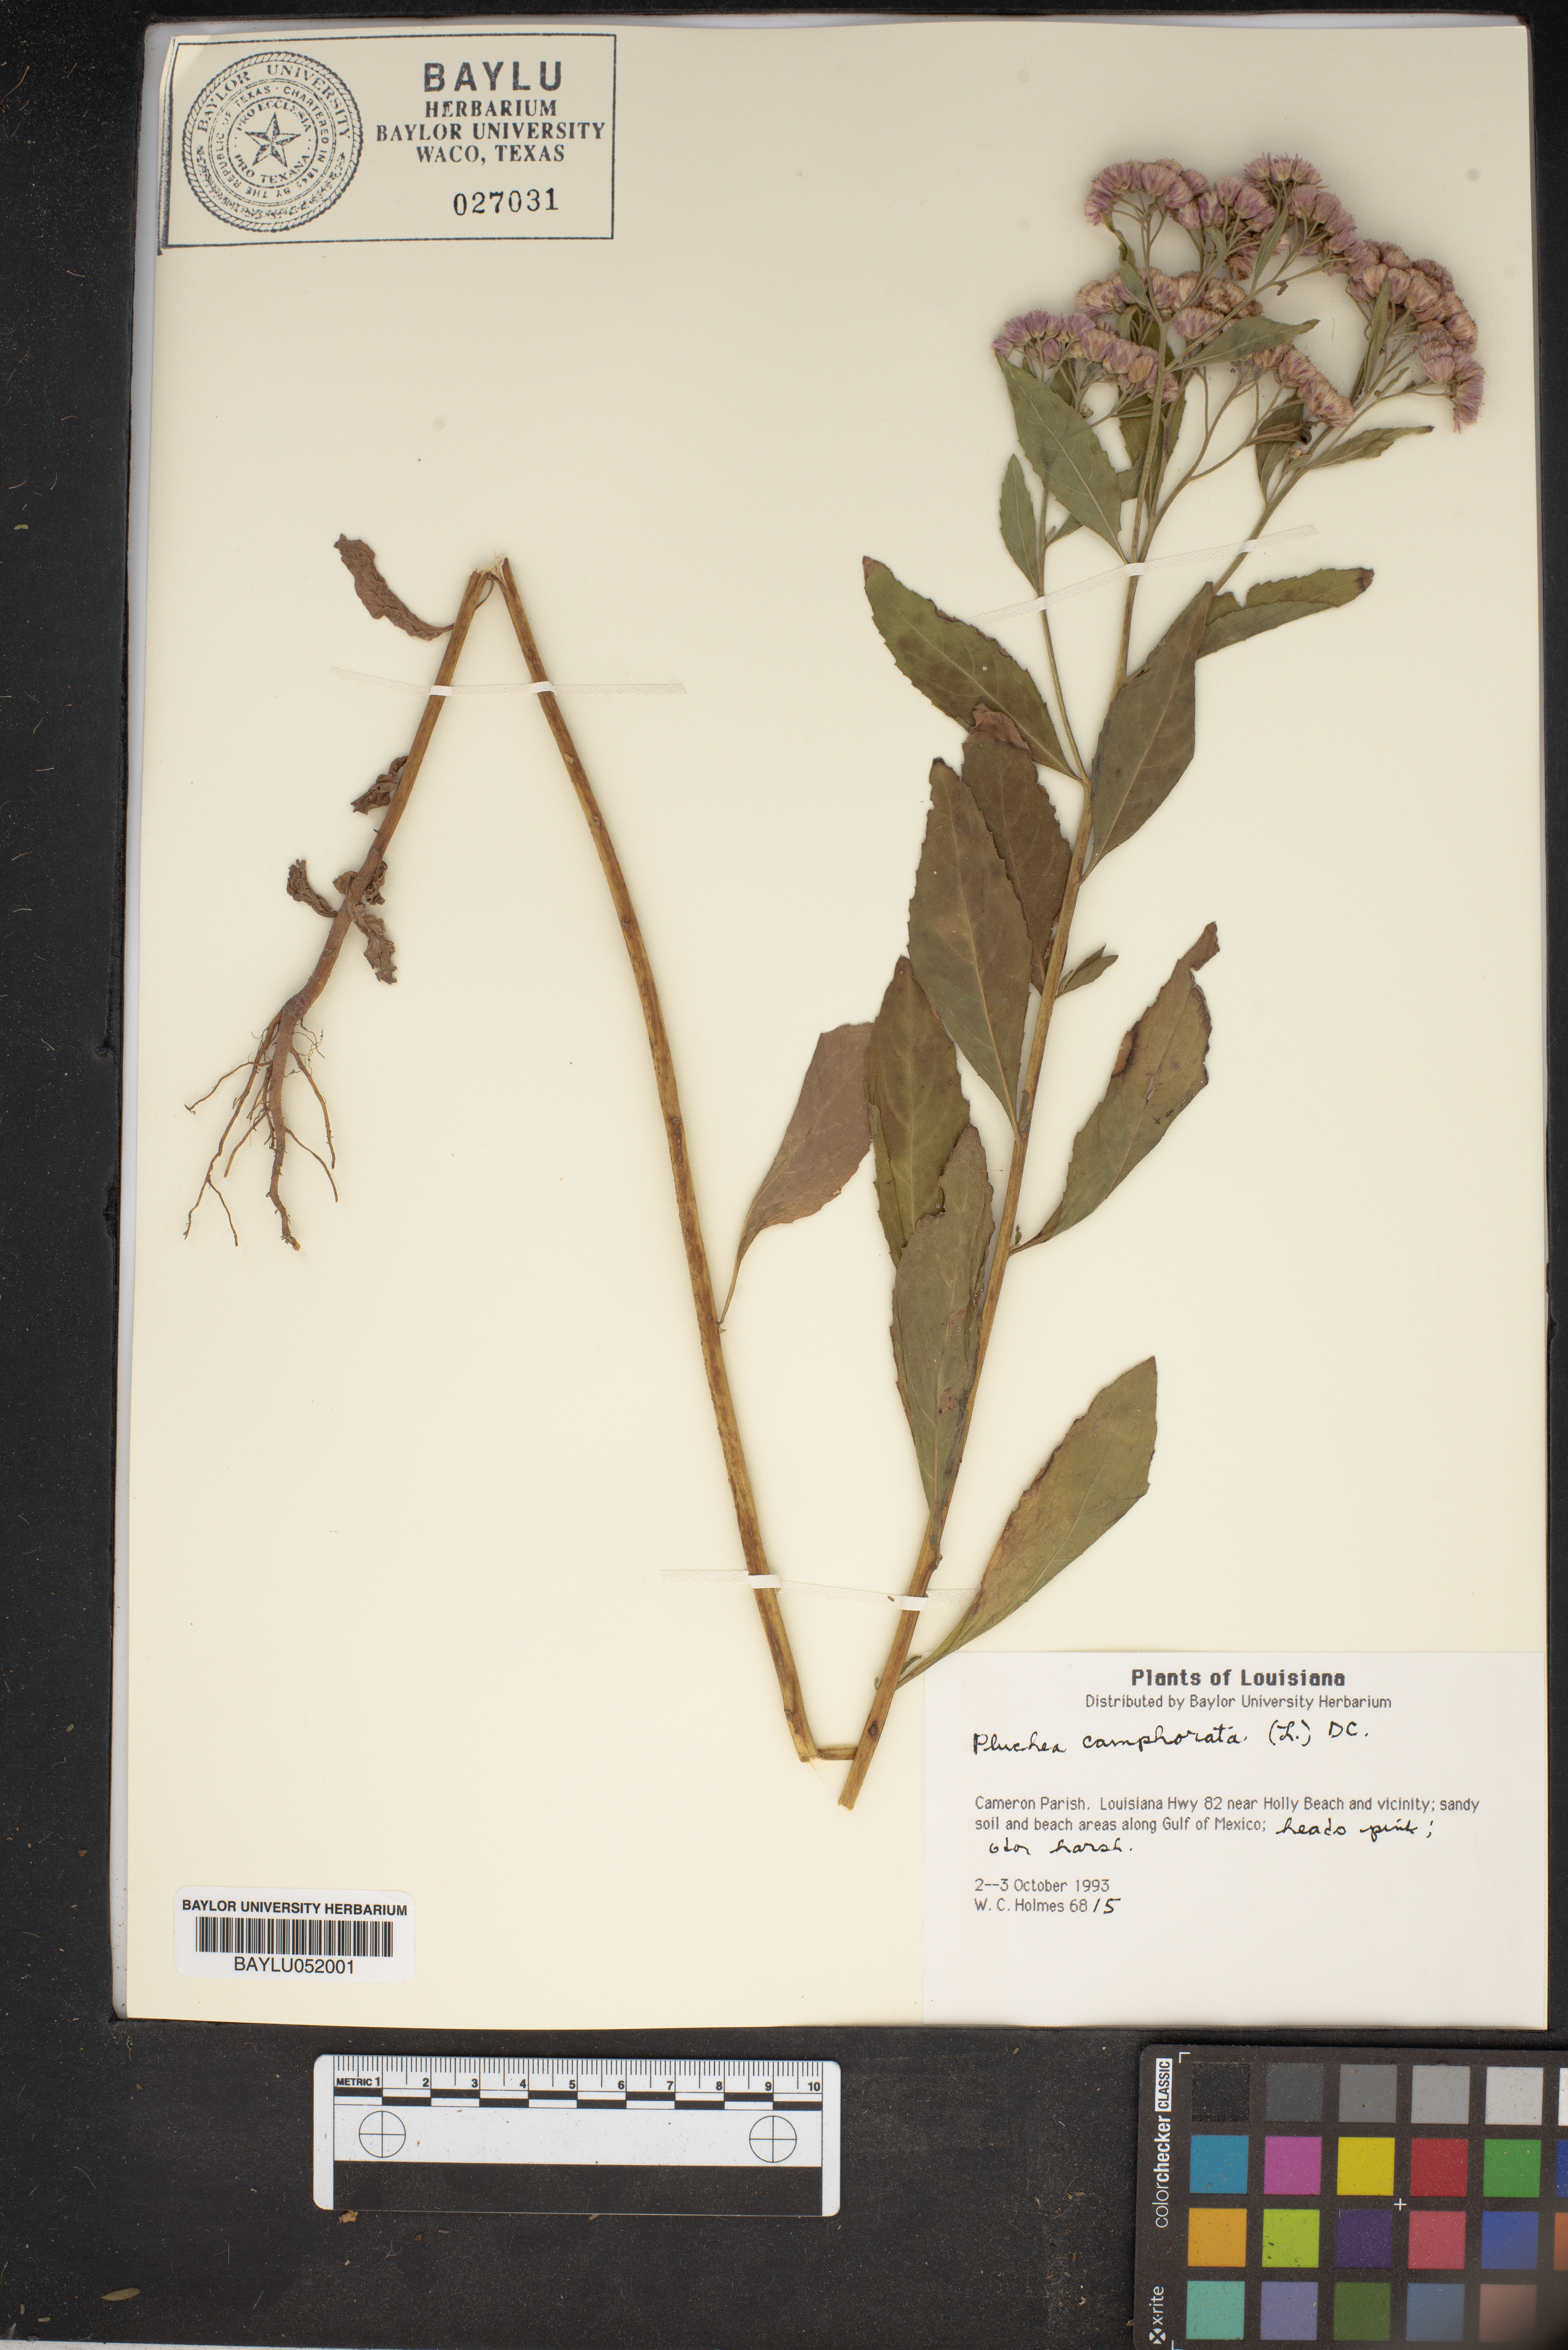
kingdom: Plantae
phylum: Tracheophyta
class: Magnoliopsida
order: Asterales
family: Asteraceae
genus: Pluchea
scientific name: Pluchea camphorata
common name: Camphor pluchea
